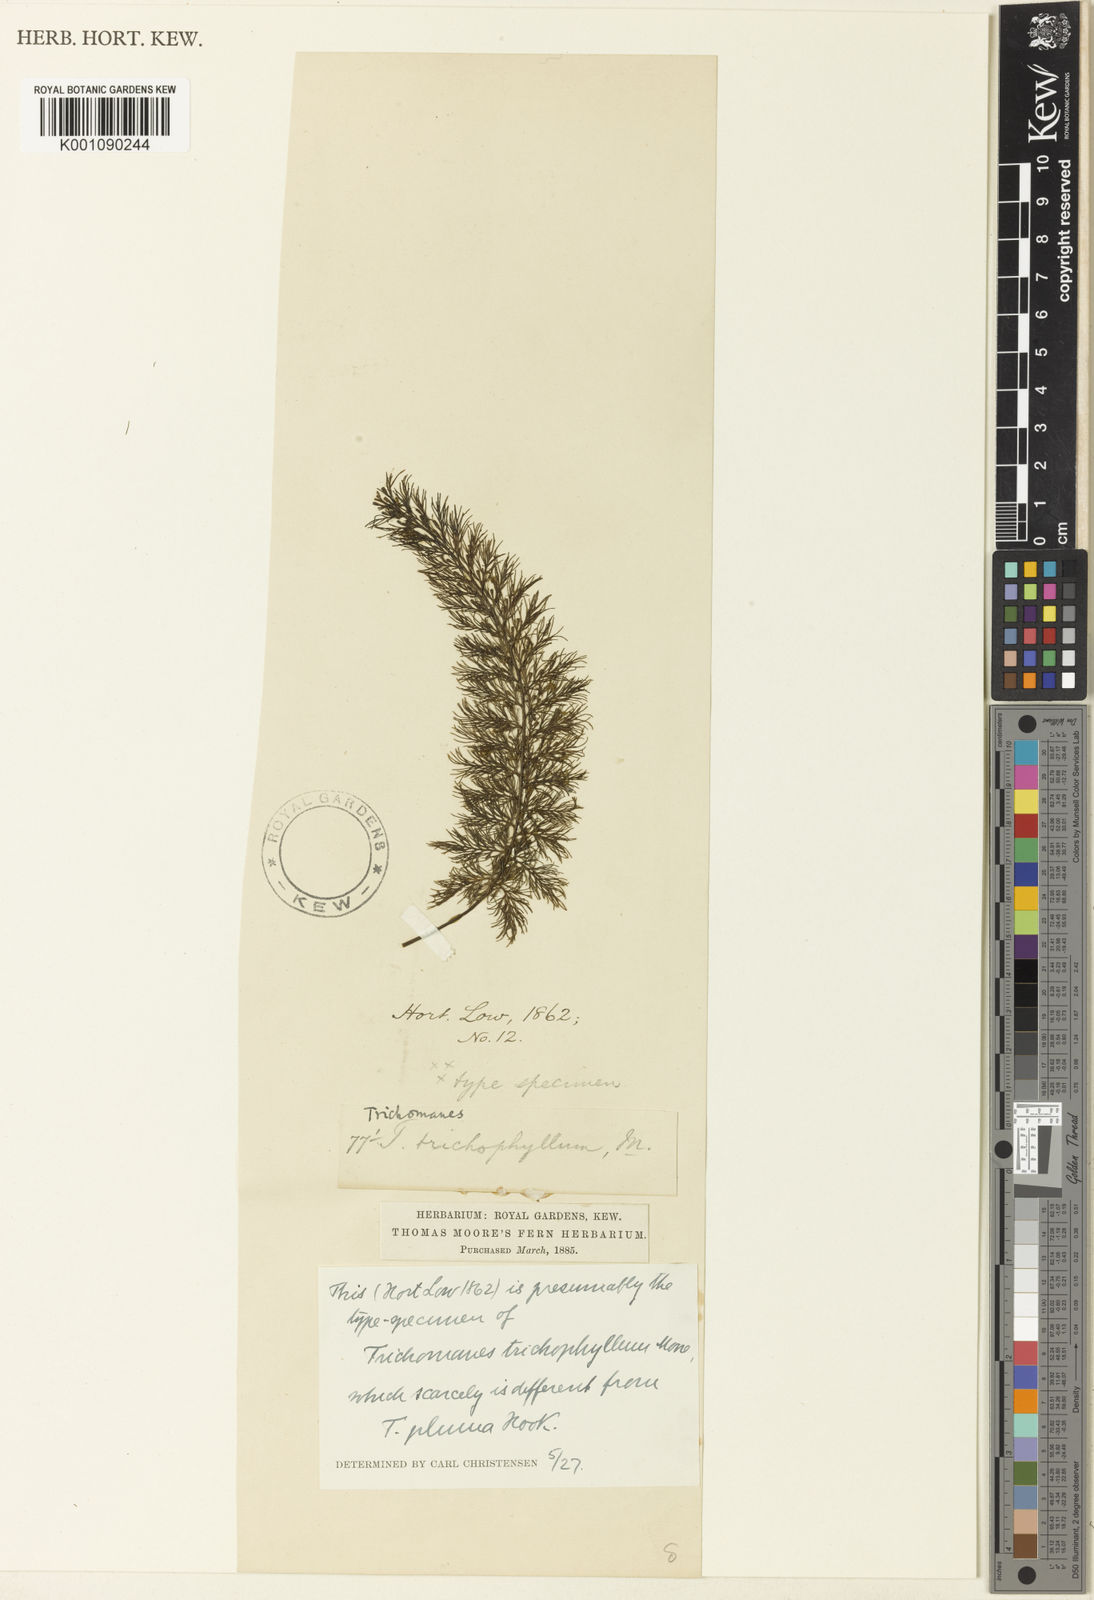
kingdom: Plantae
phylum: Tracheophyta
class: Polypodiopsida
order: Hymenophyllales
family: Hymenophyllaceae
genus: Abrodictyum
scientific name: Abrodictyum laetum
